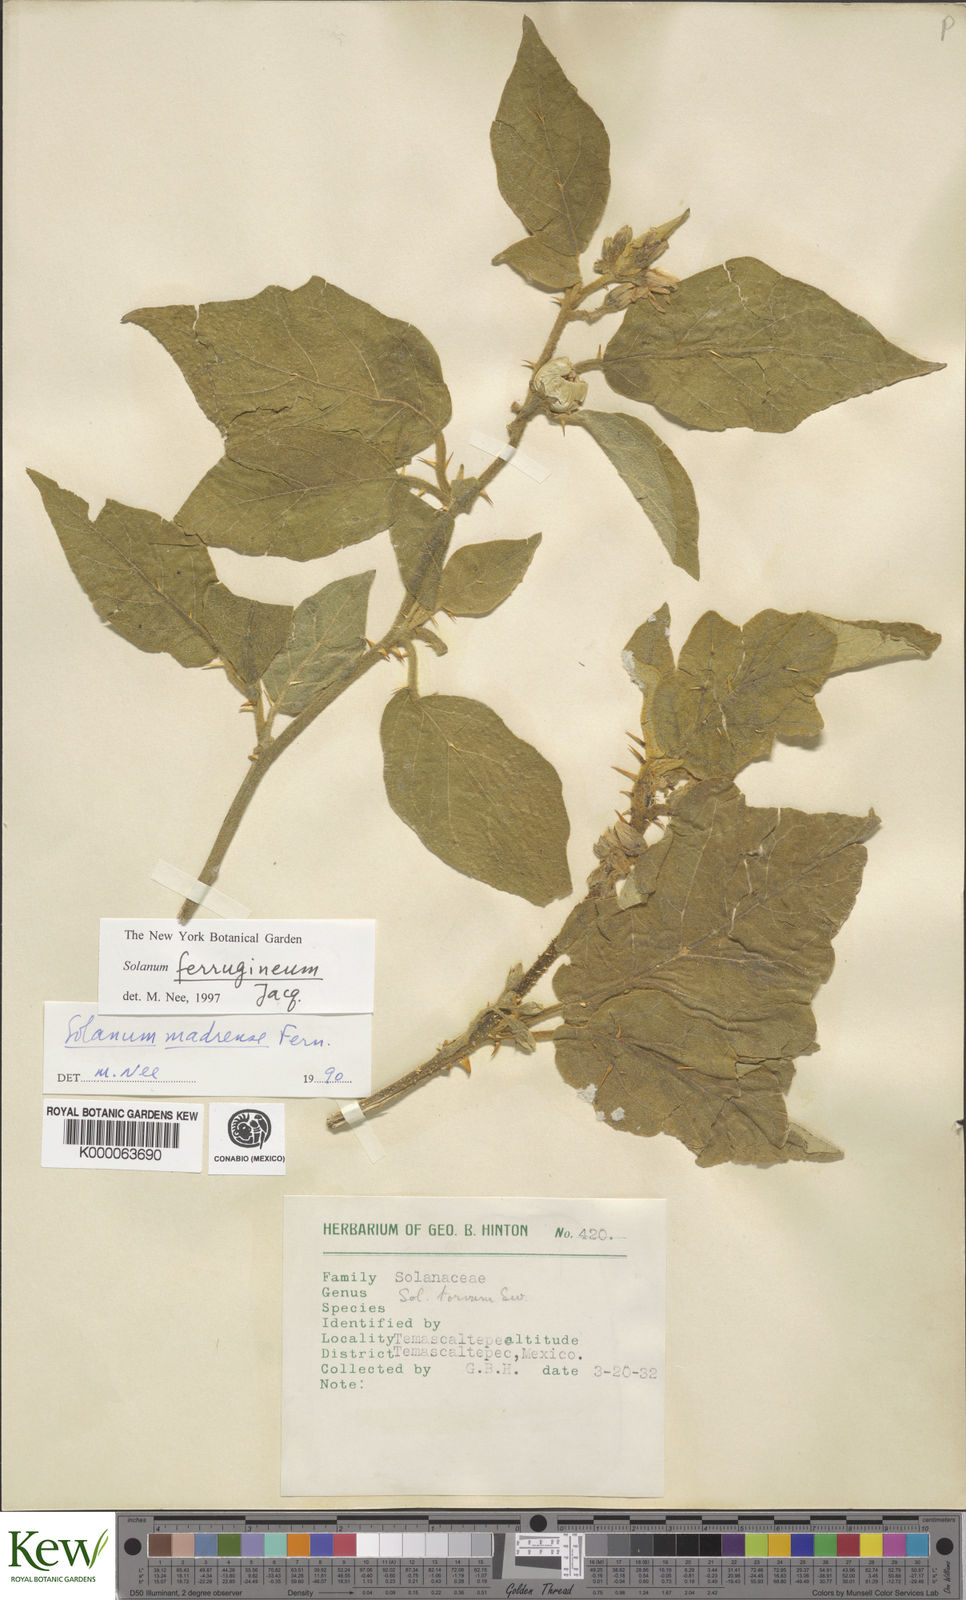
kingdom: Plantae
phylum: Tracheophyta
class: Magnoliopsida
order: Solanales
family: Solanaceae
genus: Solanum
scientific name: Solanum
